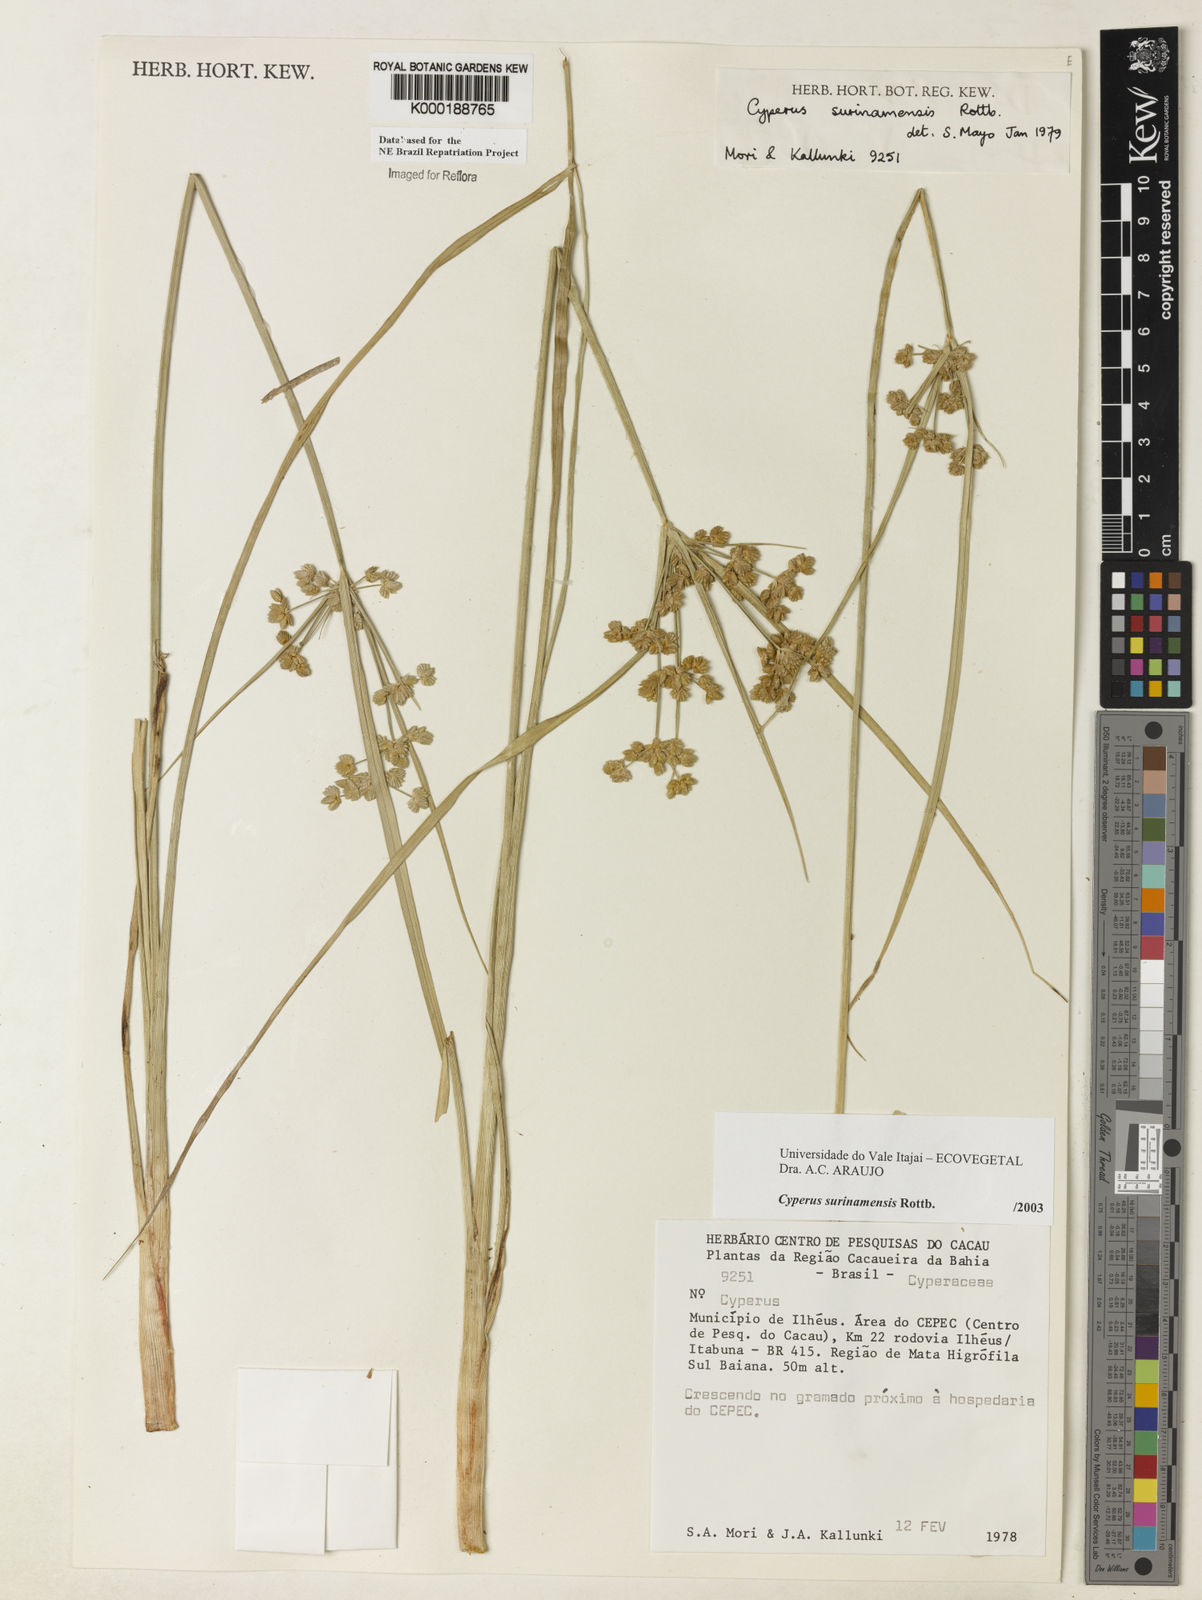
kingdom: Plantae
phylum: Tracheophyta
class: Liliopsida
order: Poales
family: Cyperaceae
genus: Cyperus
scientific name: Cyperus surinamensis
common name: Tropical flat sedge
